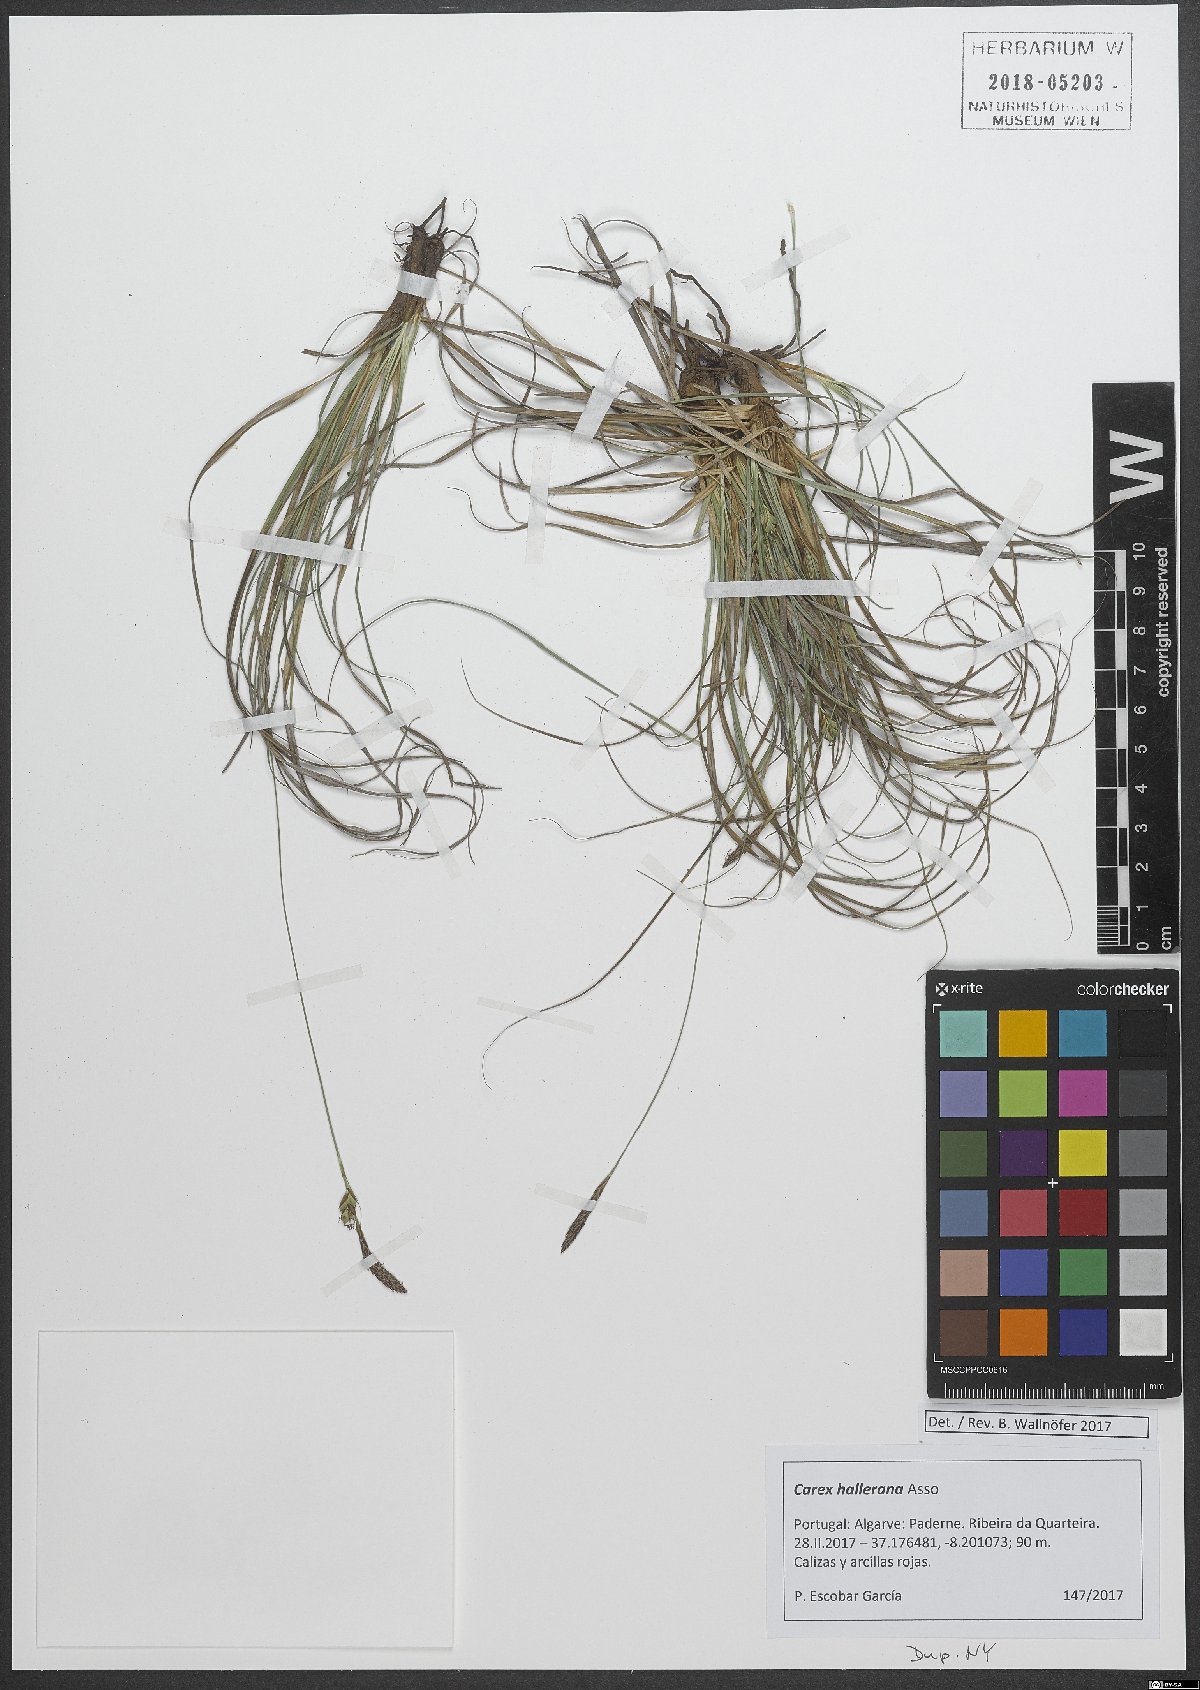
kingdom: Plantae
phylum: Tracheophyta
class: Liliopsida
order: Poales
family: Cyperaceae
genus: Carex
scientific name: Carex halleriana
